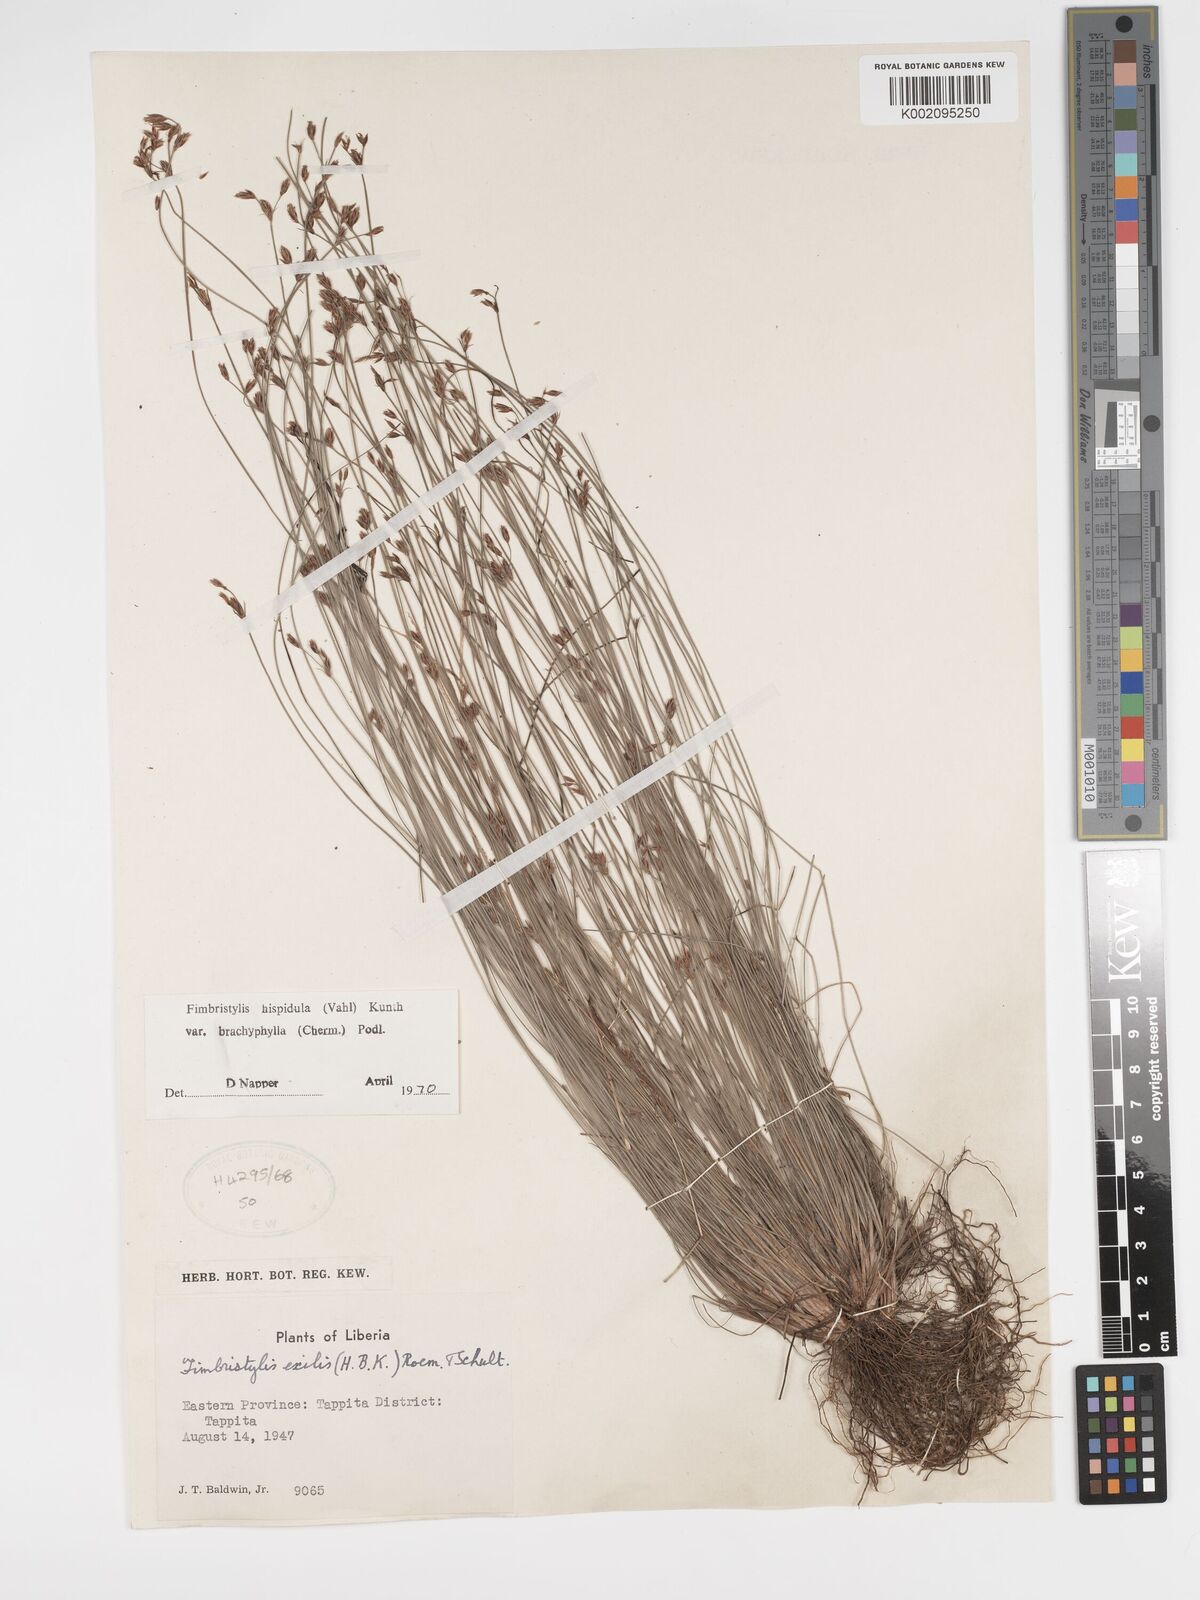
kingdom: Plantae
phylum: Tracheophyta
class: Liliopsida
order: Poales
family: Cyperaceae
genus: Bulbostylis
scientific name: Bulbostylis hispidula
